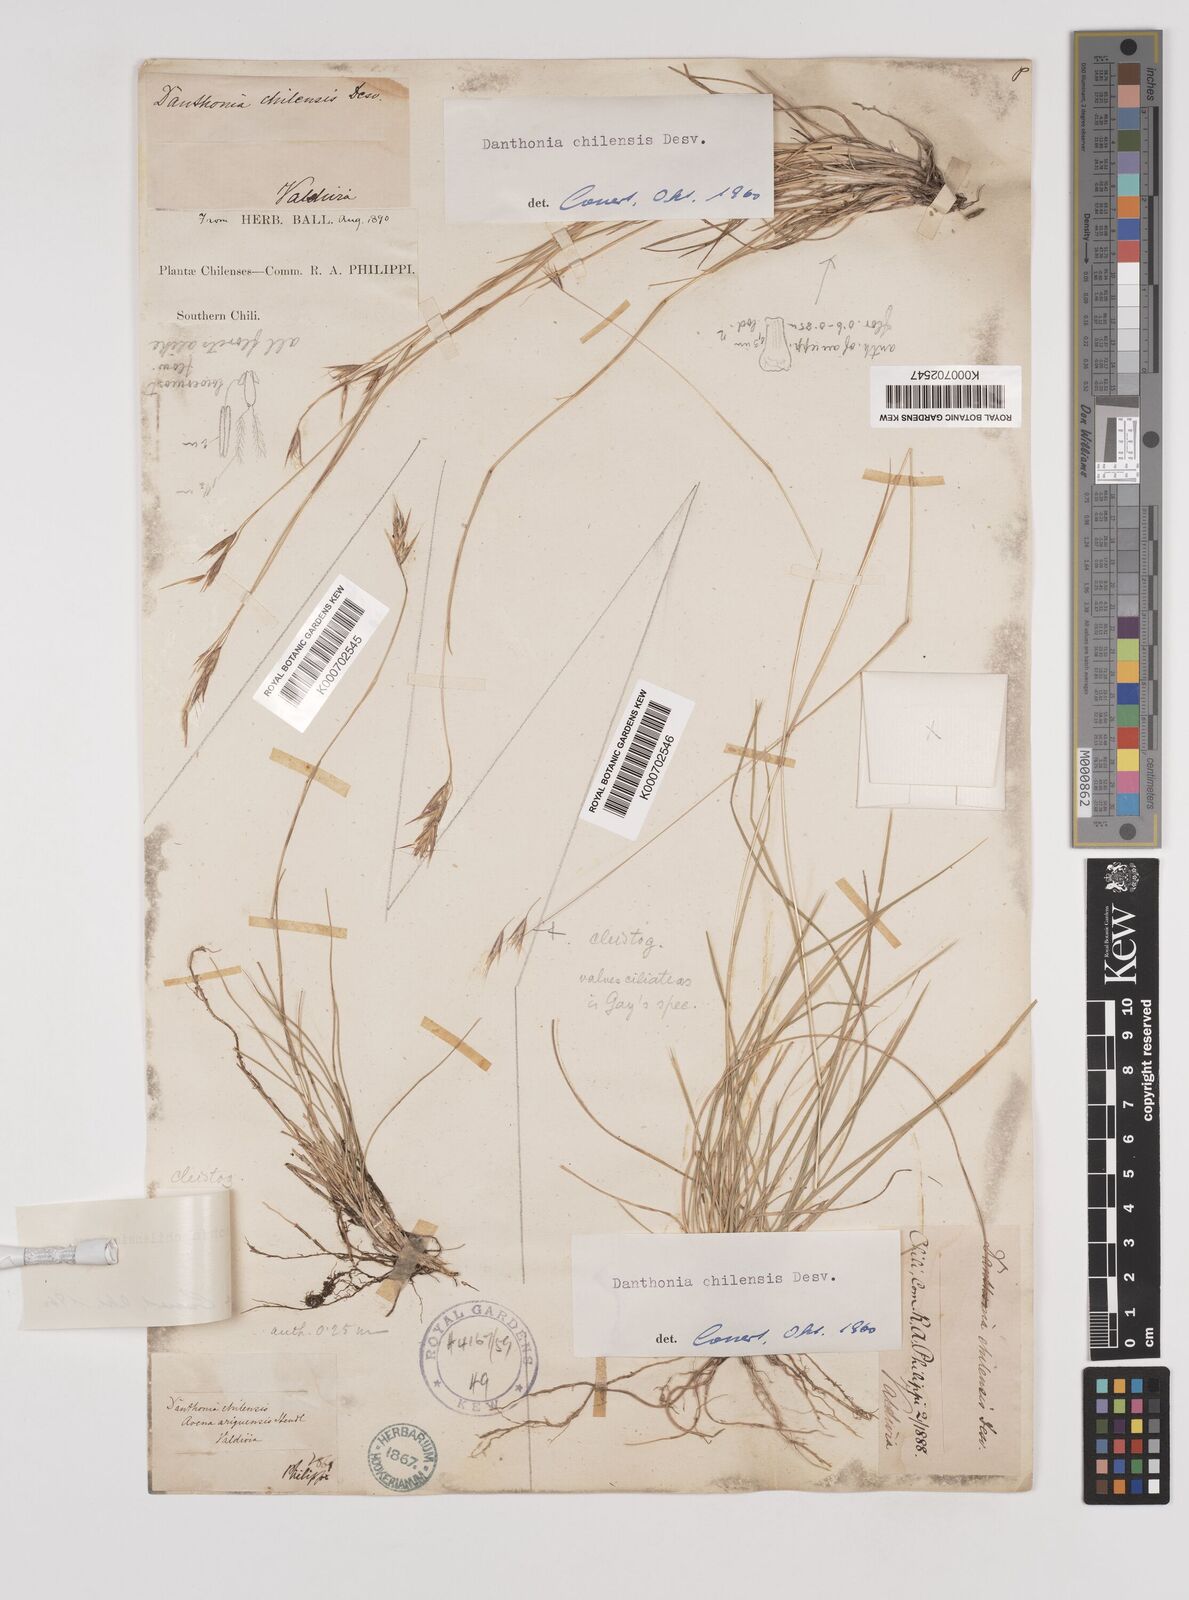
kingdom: Plantae
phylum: Tracheophyta
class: Liliopsida
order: Poales
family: Poaceae
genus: Danthonia
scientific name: Danthonia
